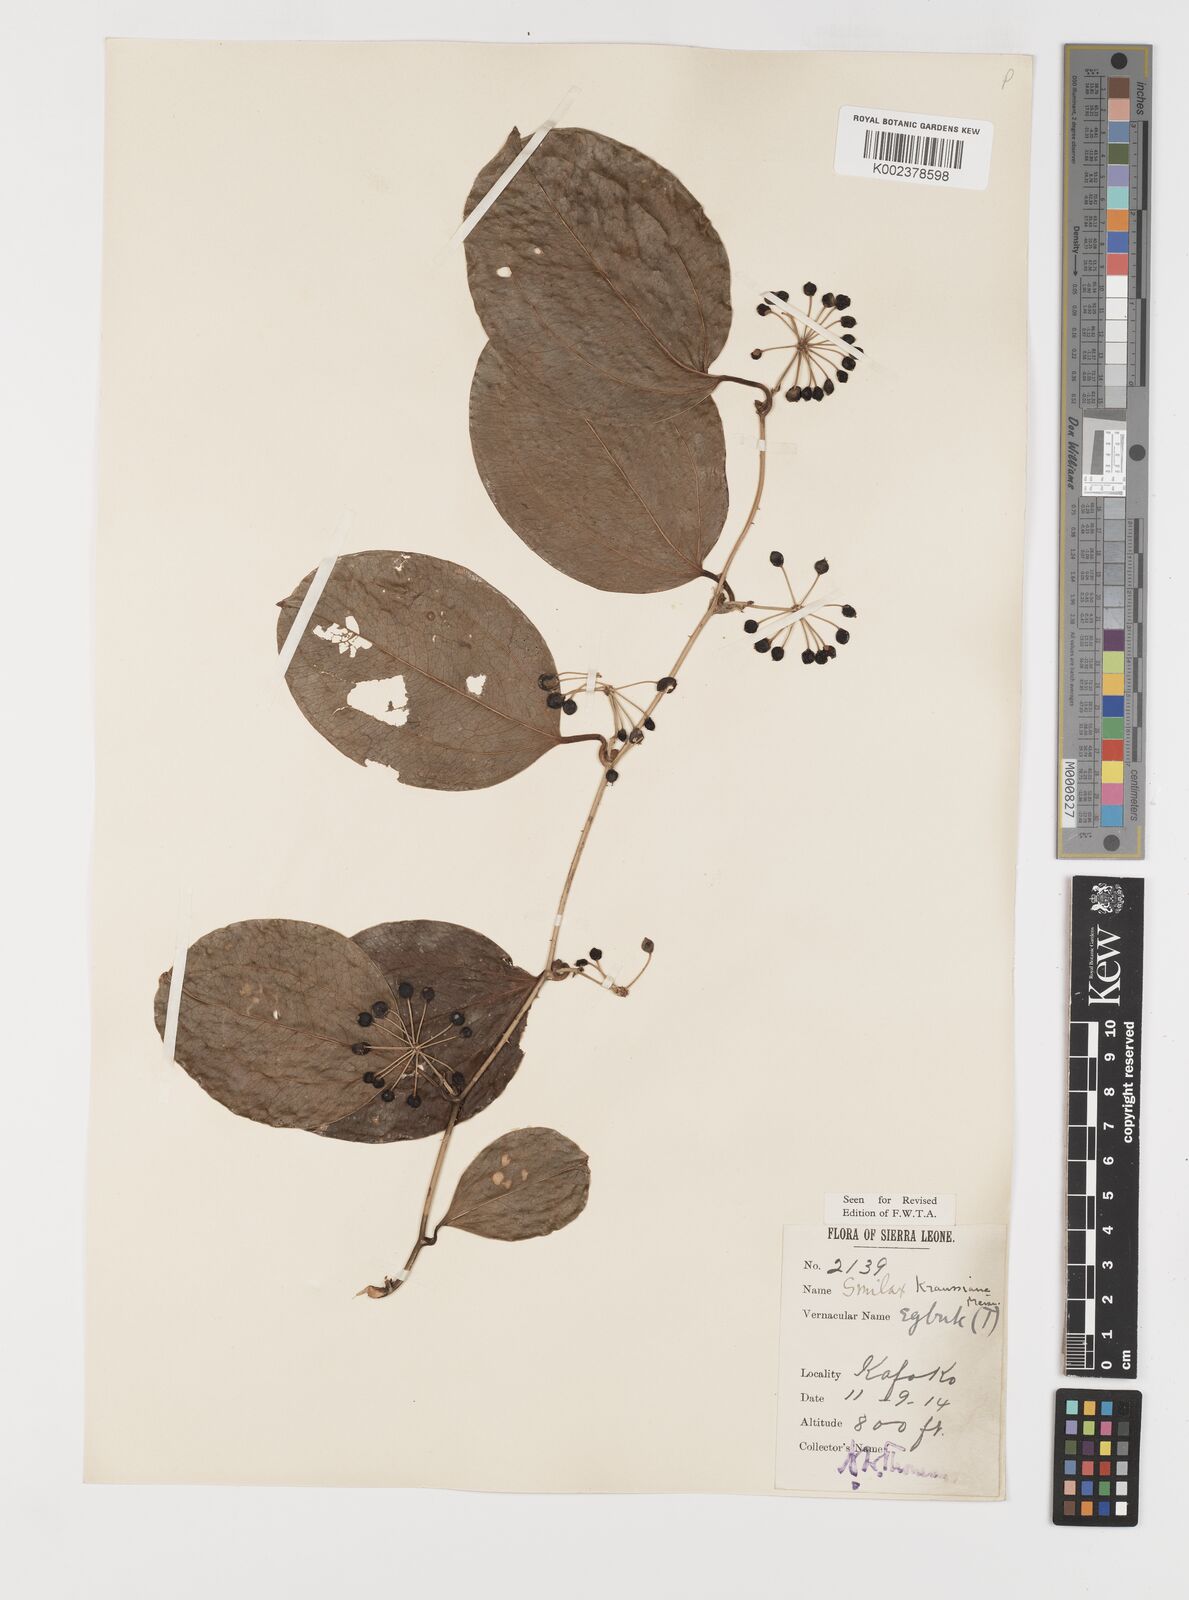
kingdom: Plantae
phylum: Tracheophyta
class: Liliopsida
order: Liliales
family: Smilacaceae
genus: Smilax
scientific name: Smilax anceps
